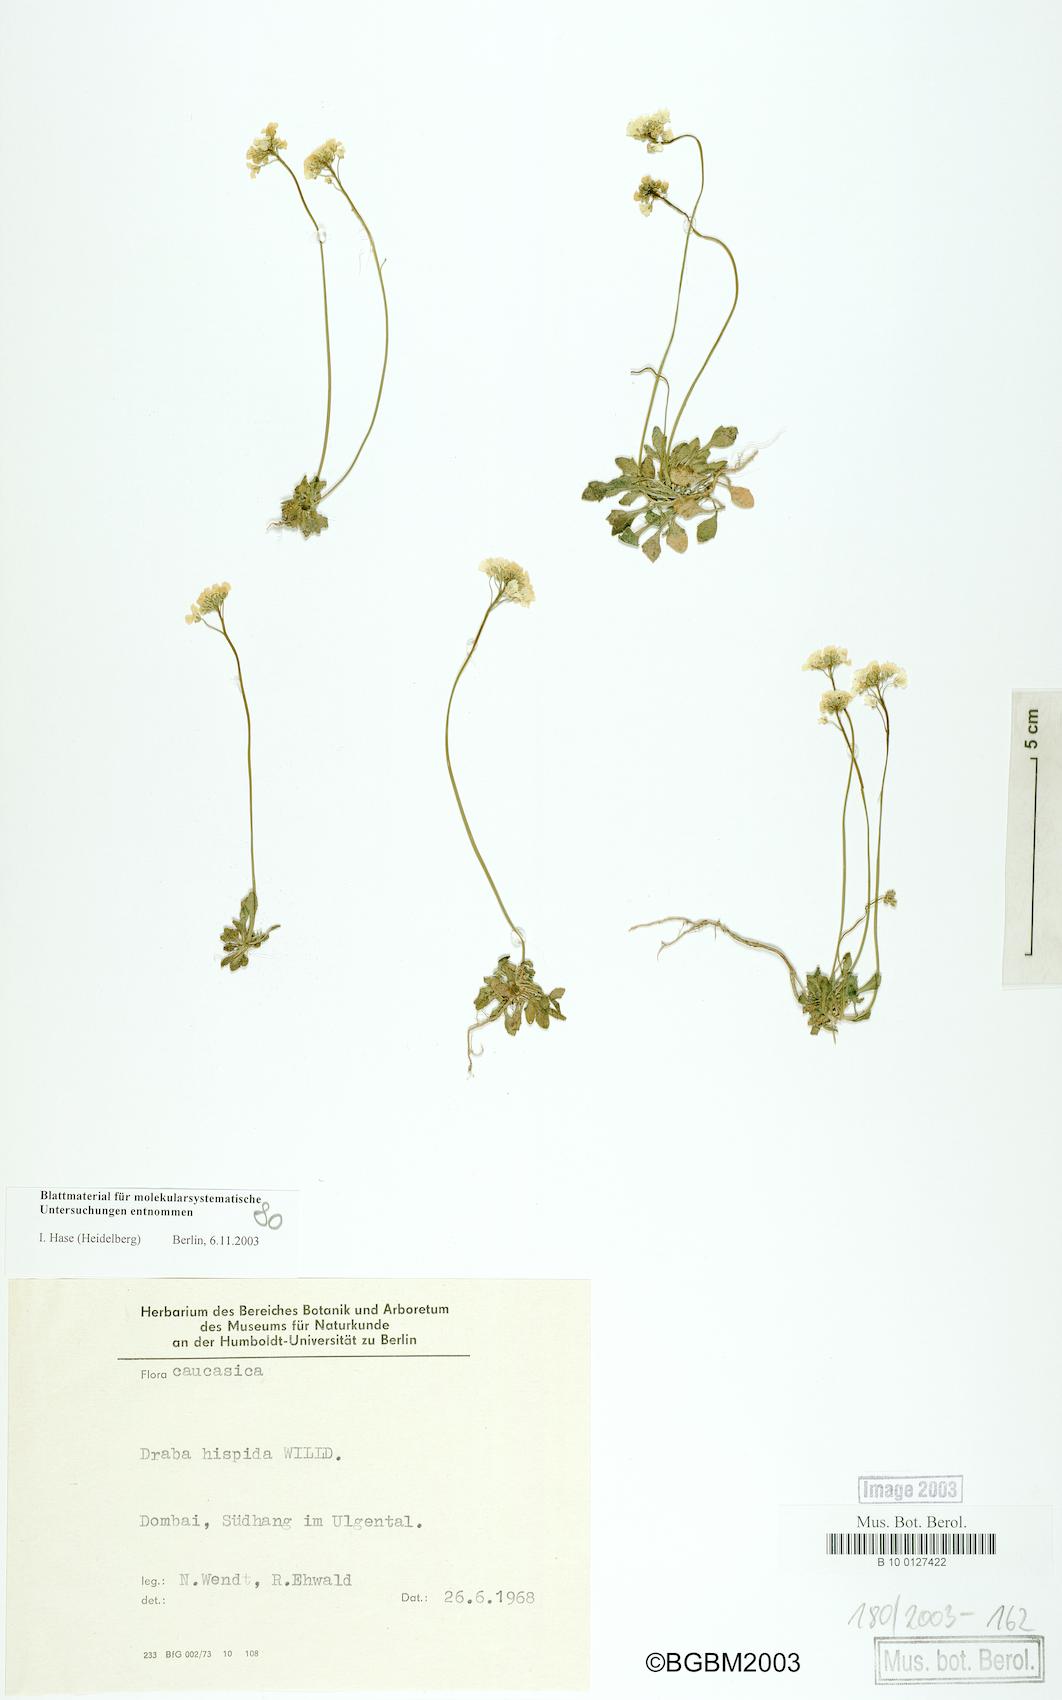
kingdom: Plantae
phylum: Tracheophyta
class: Magnoliopsida
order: Brassicales
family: Brassicaceae
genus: Draba
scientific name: Draba hispida
